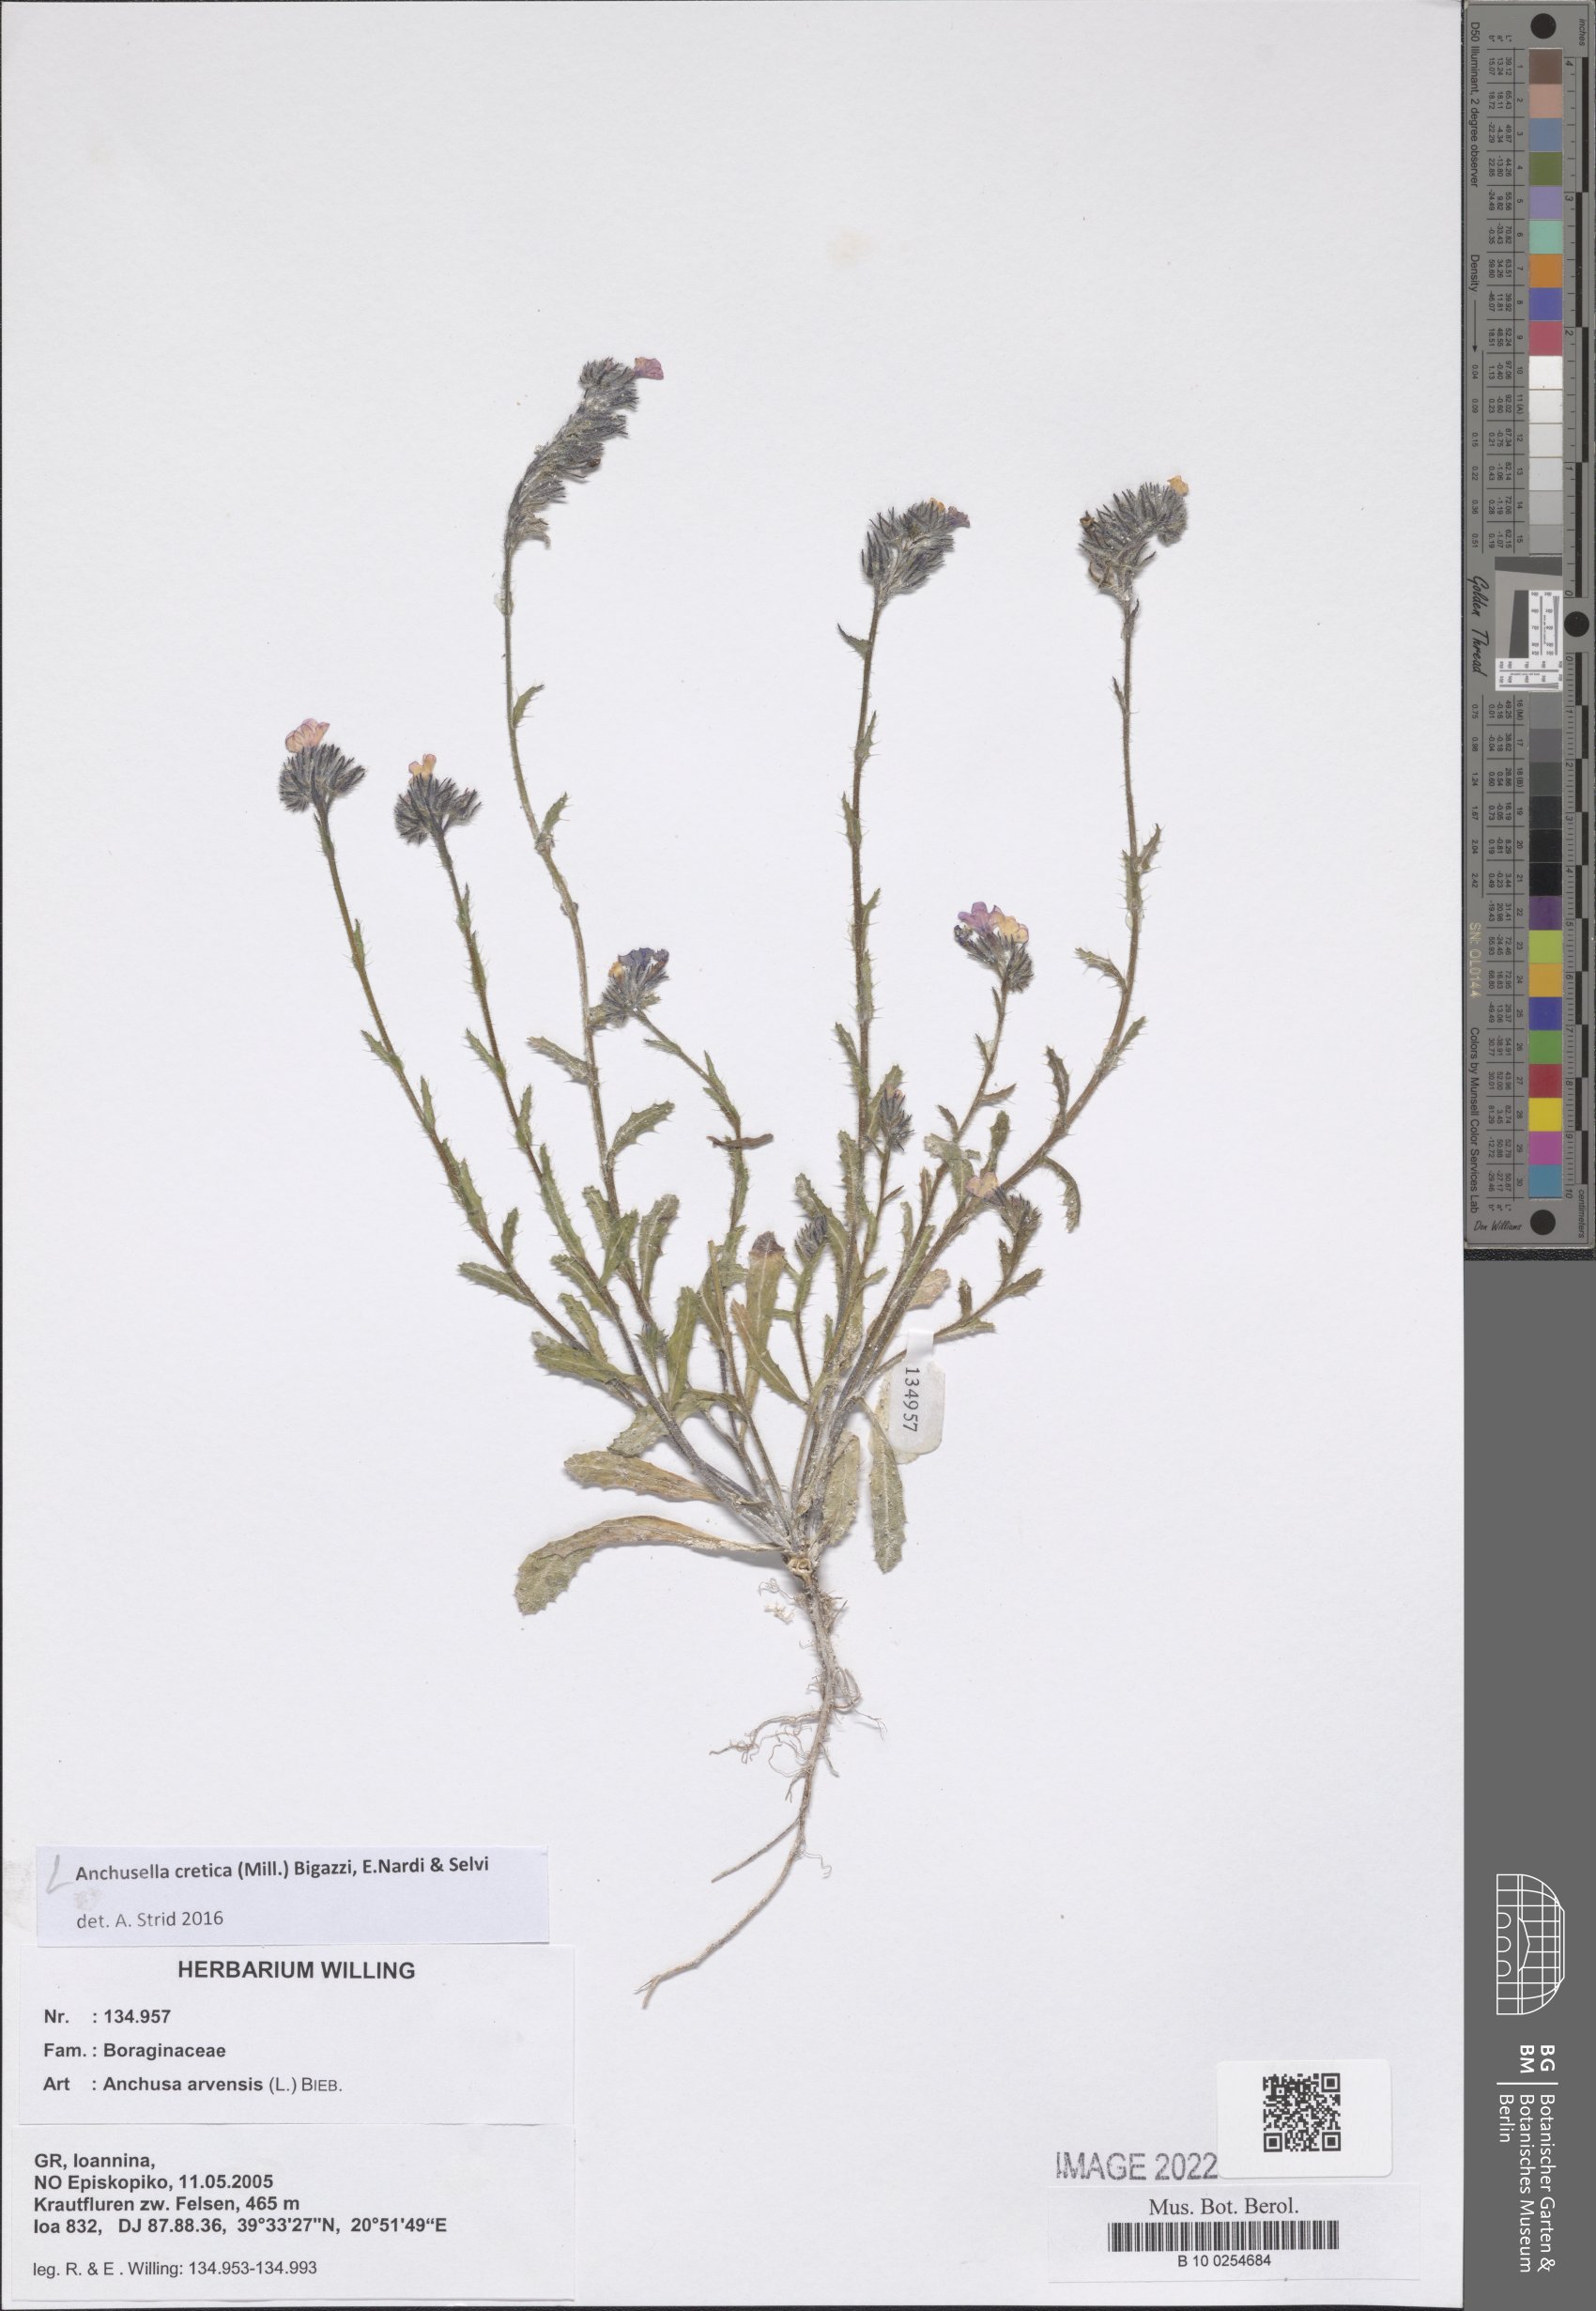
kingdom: Plantae
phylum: Tracheophyta
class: Magnoliopsida
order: Boraginales
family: Boraginaceae
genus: Anchusella
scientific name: Anchusella cretica
